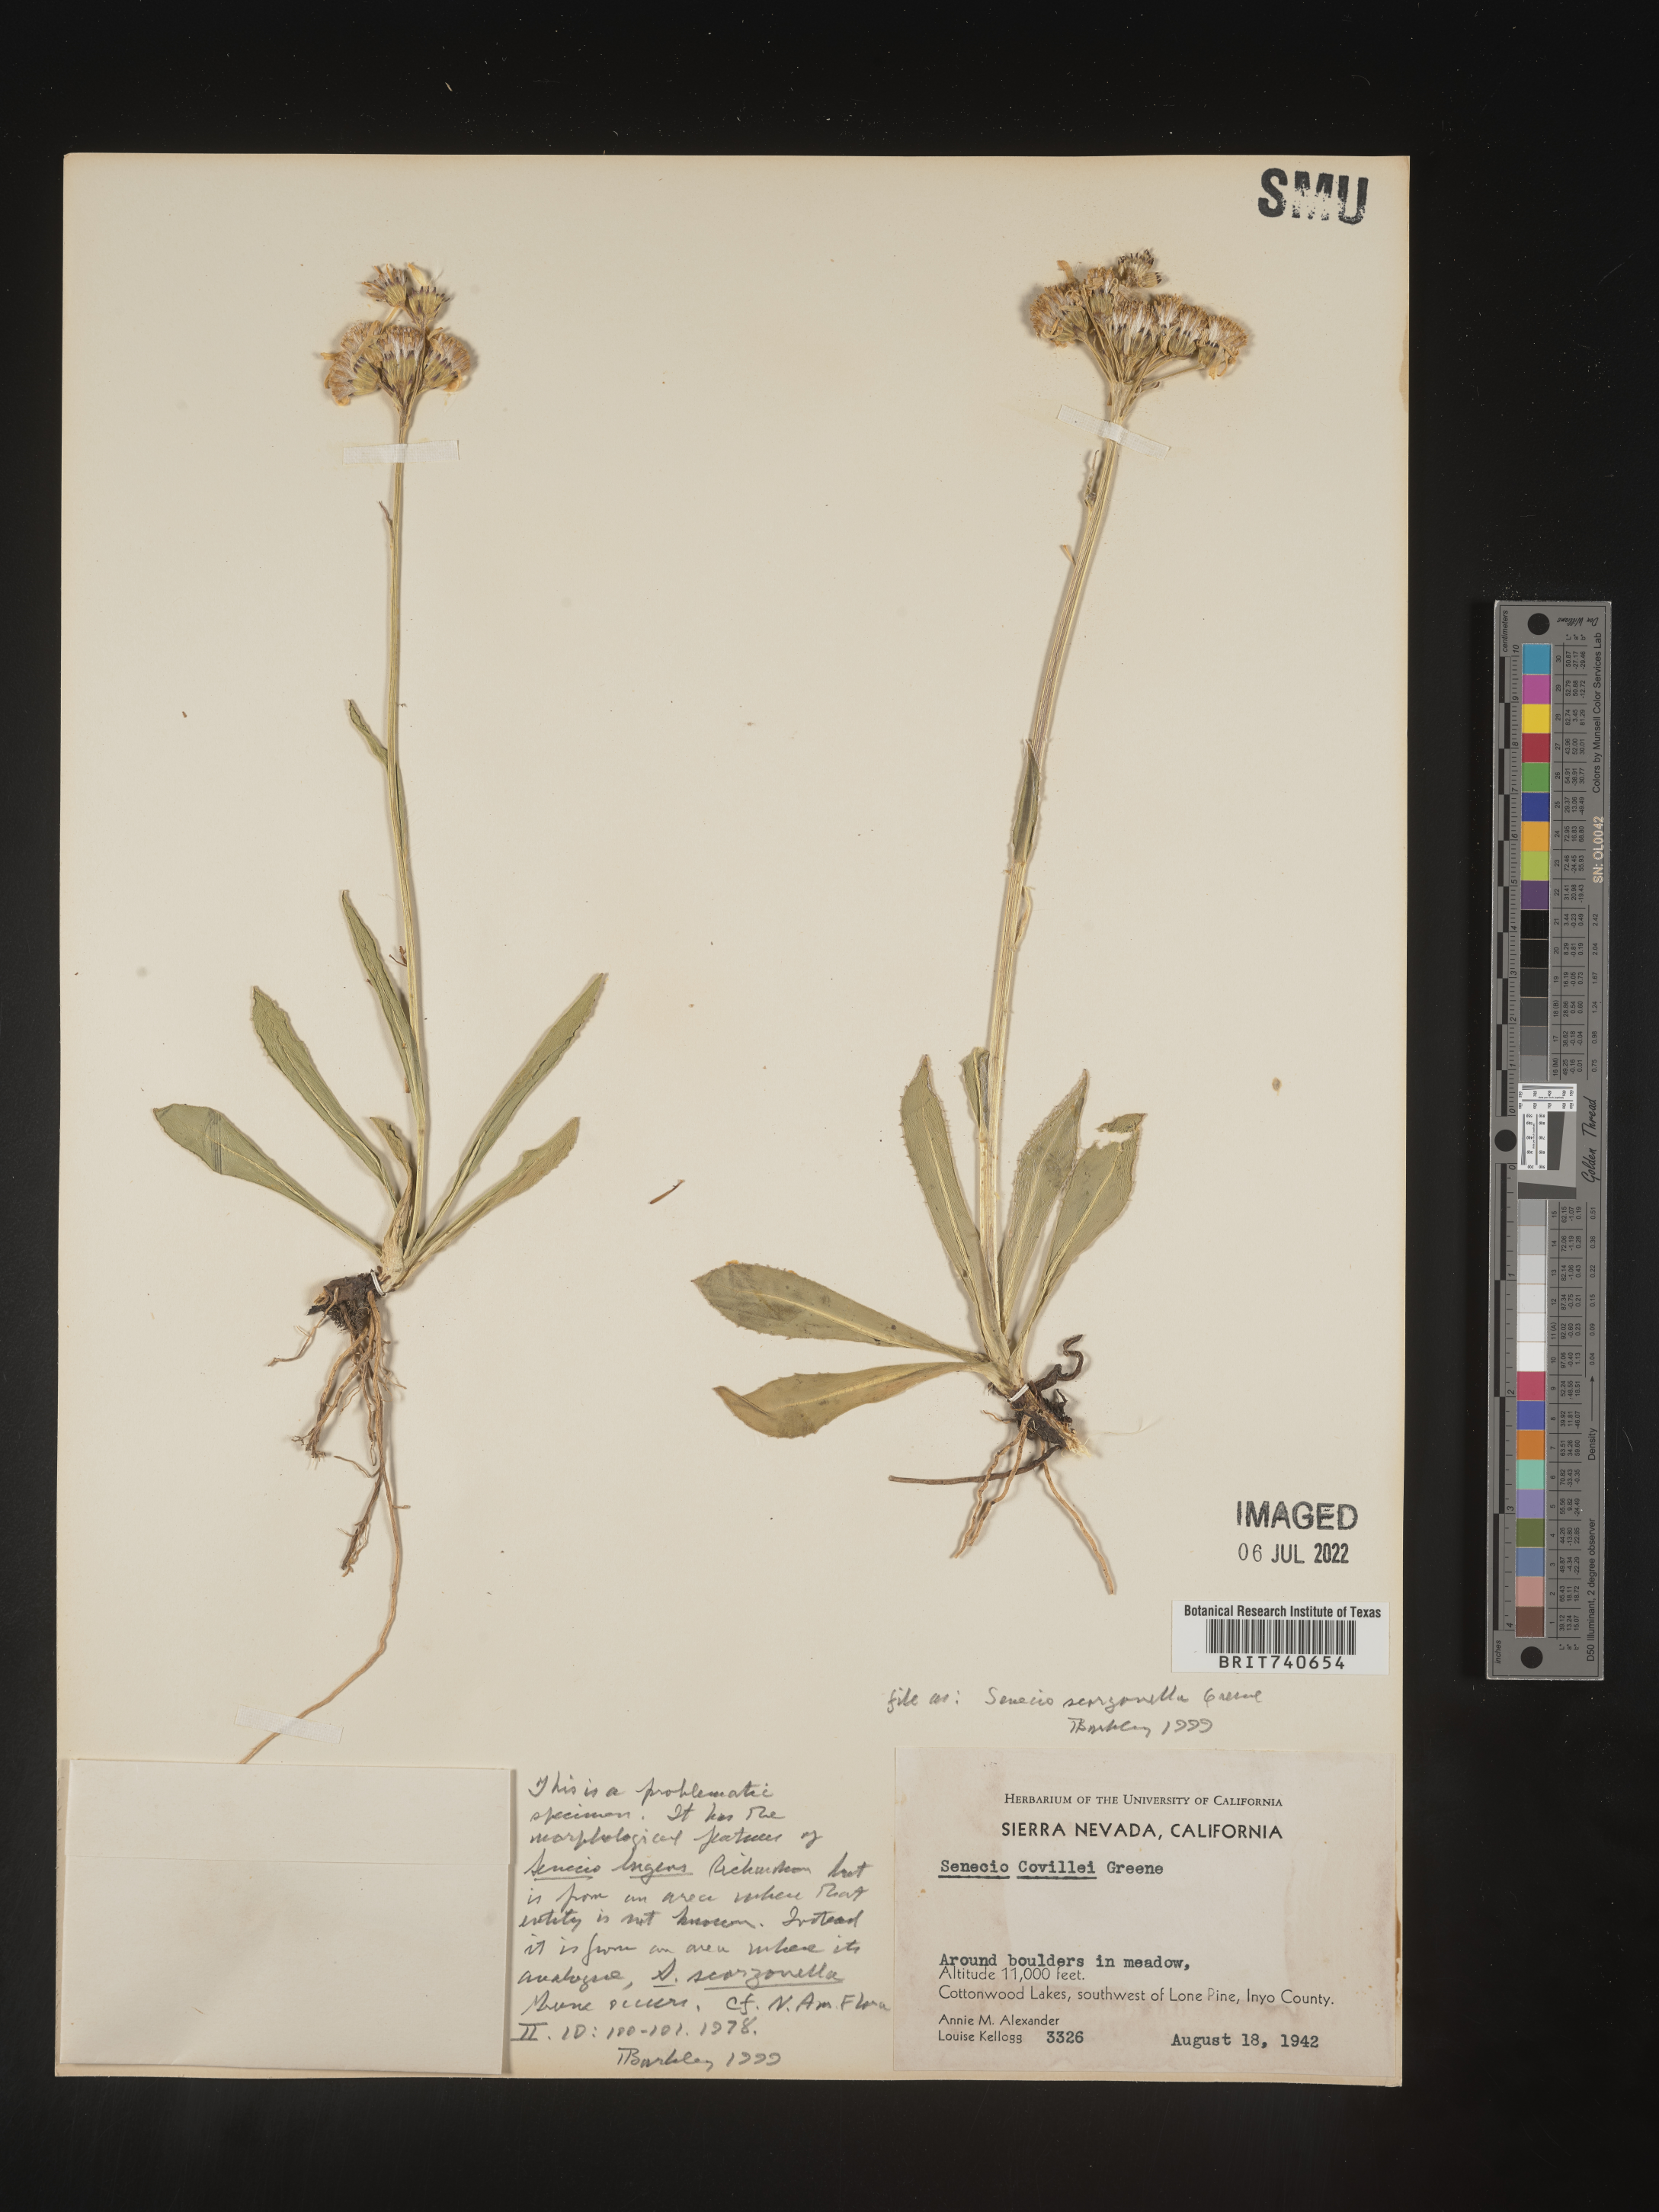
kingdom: Plantae
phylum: Tracheophyta
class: Magnoliopsida
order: Asterales
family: Asteraceae
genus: Senecio
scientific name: Senecio scorzonella
